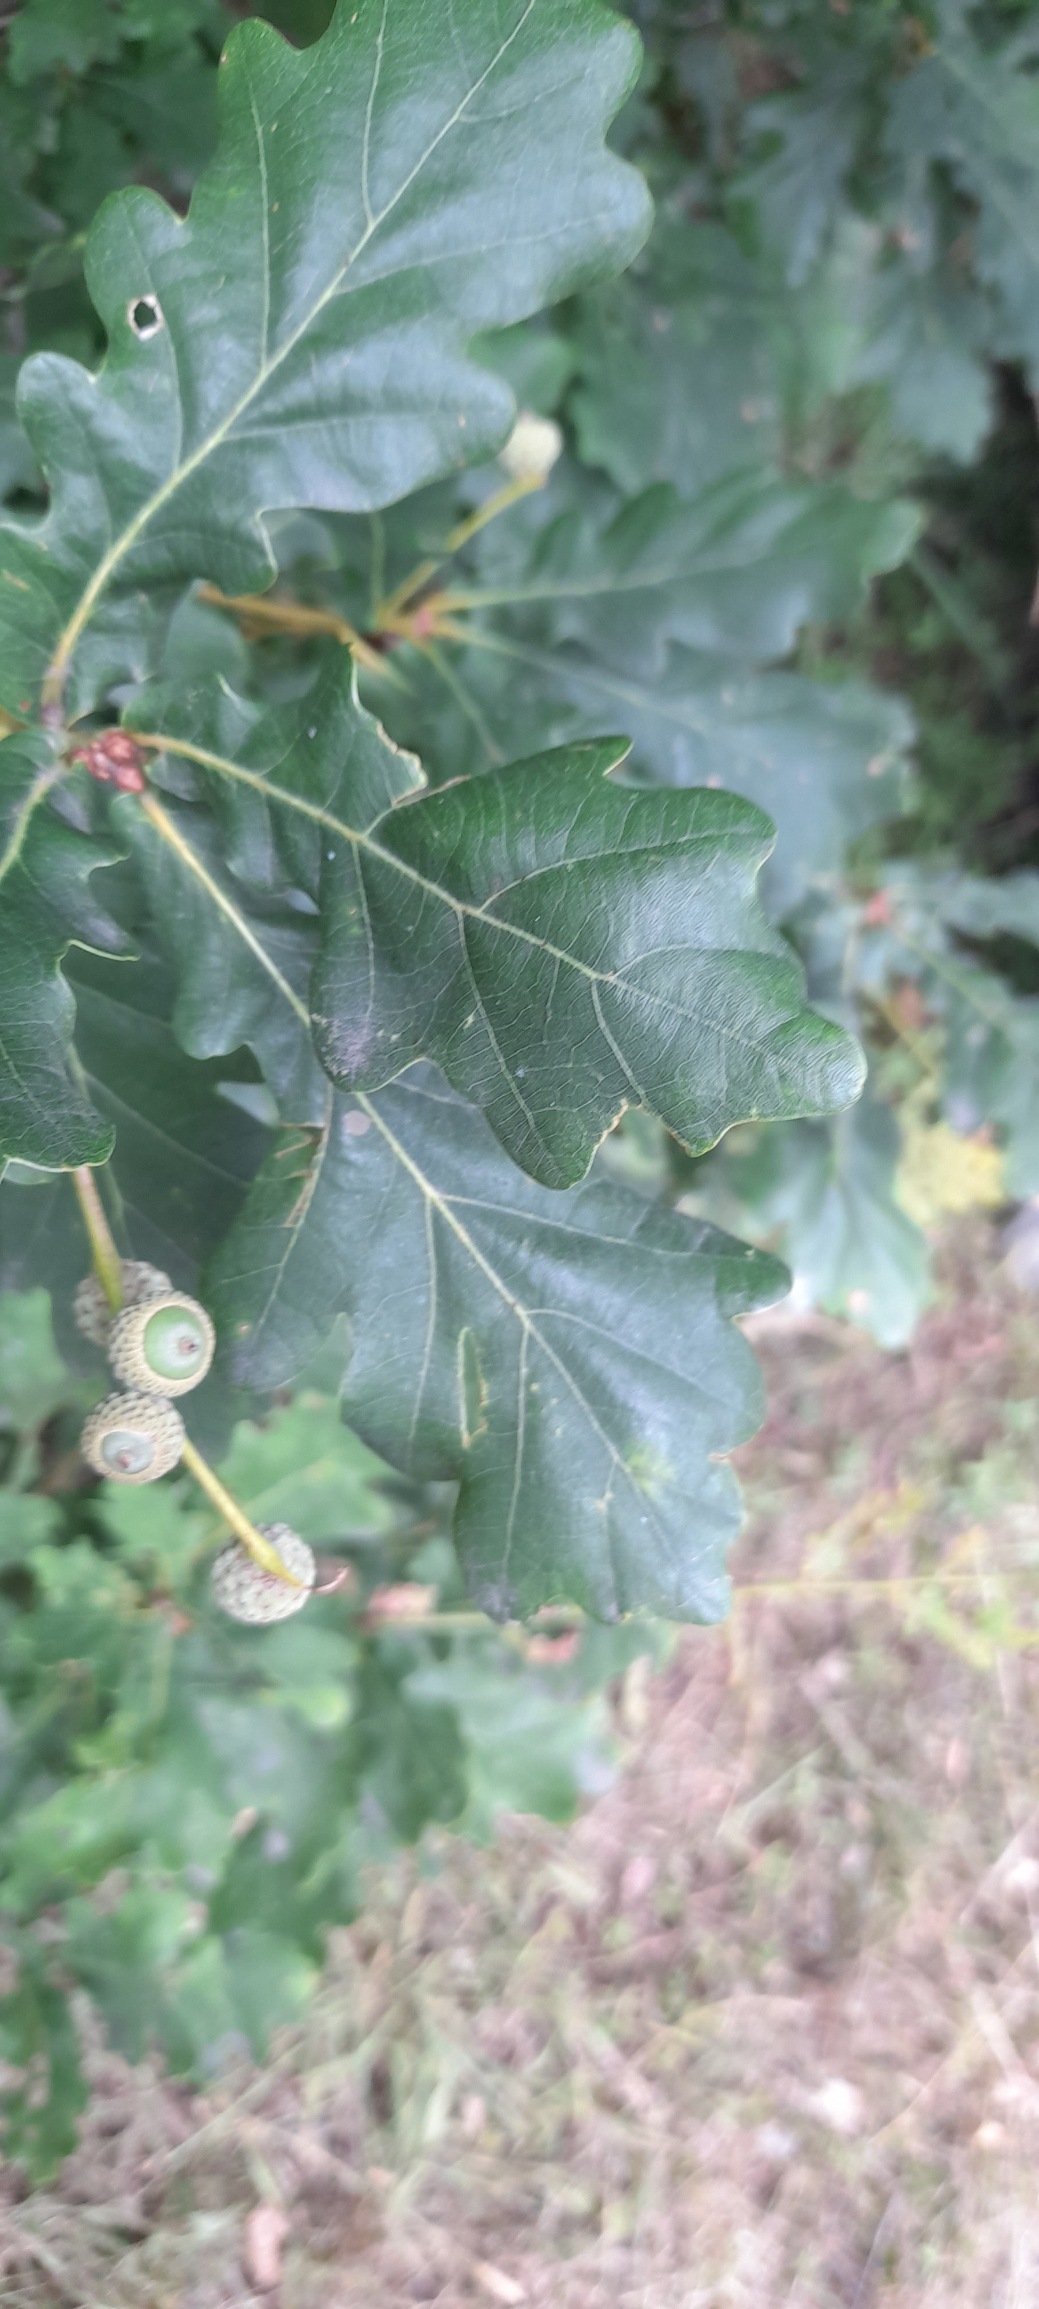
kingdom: Plantae
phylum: Tracheophyta
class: Magnoliopsida
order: Fagales
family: Fagaceae
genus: Quercus
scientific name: Quercus robur
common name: Stilk-eg/almindelig eg
